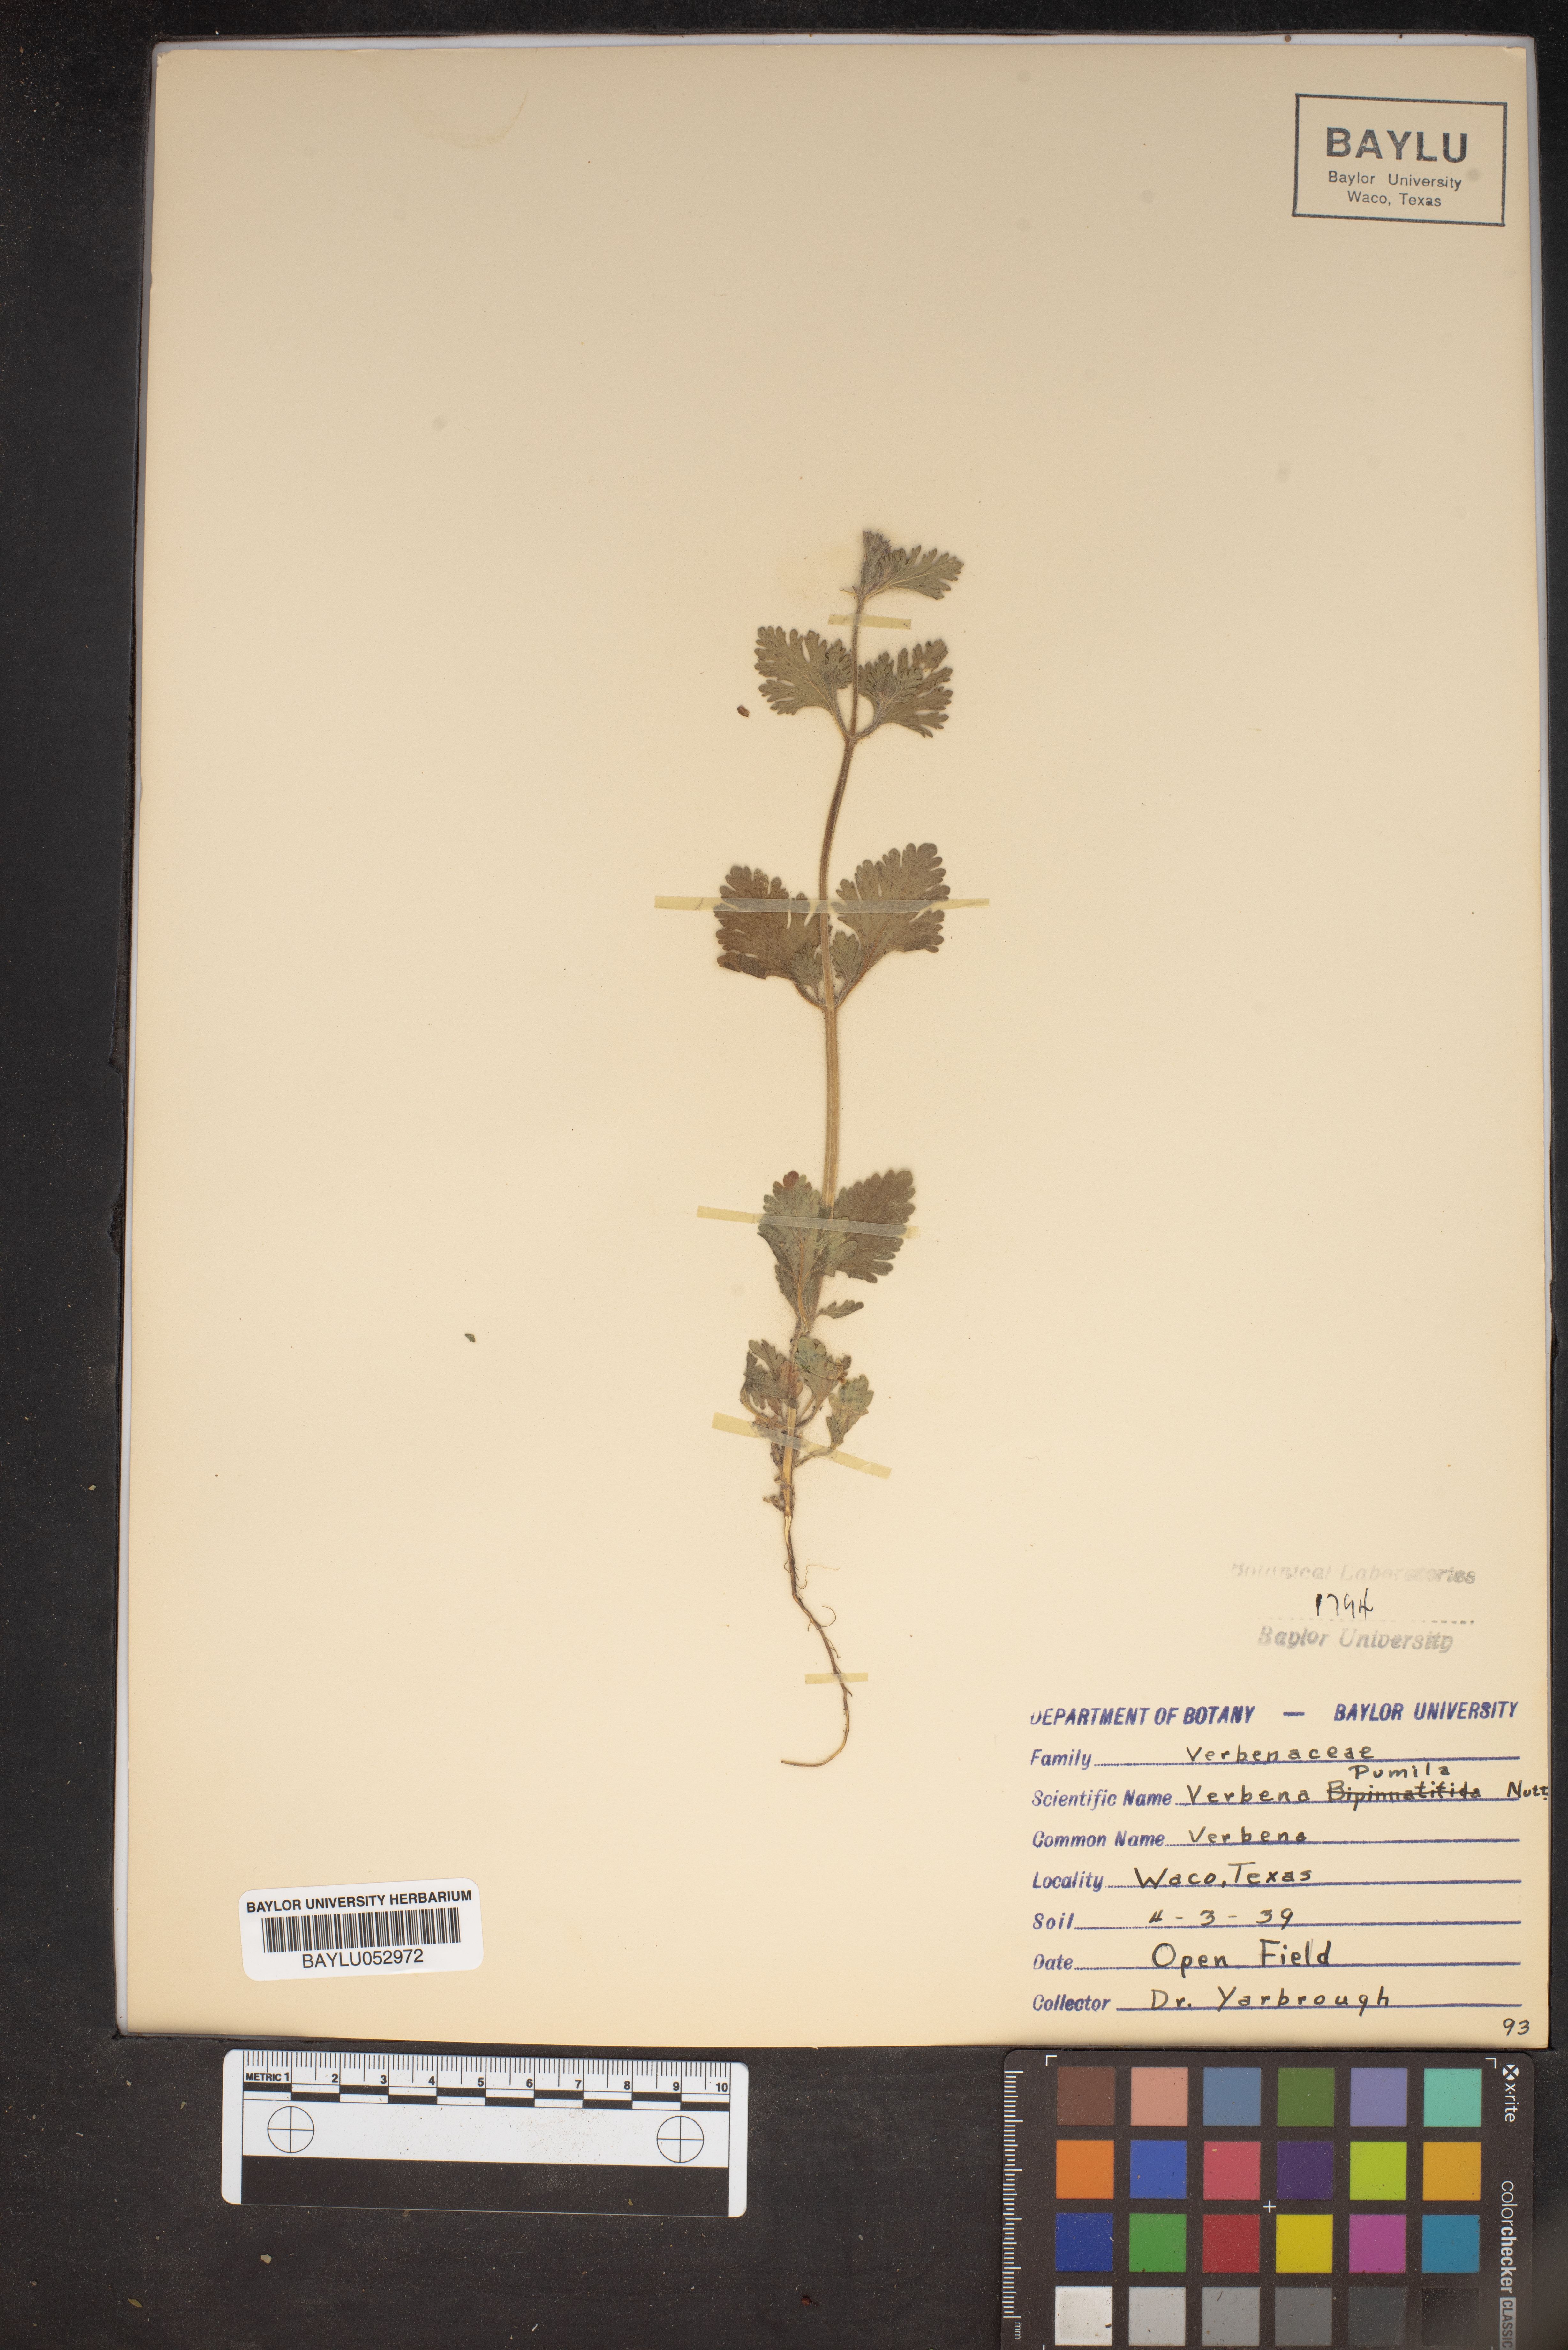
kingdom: Plantae
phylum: Tracheophyta
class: Magnoliopsida
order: Lamiales
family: Verbenaceae
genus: Verbena
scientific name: Verbena pumila
